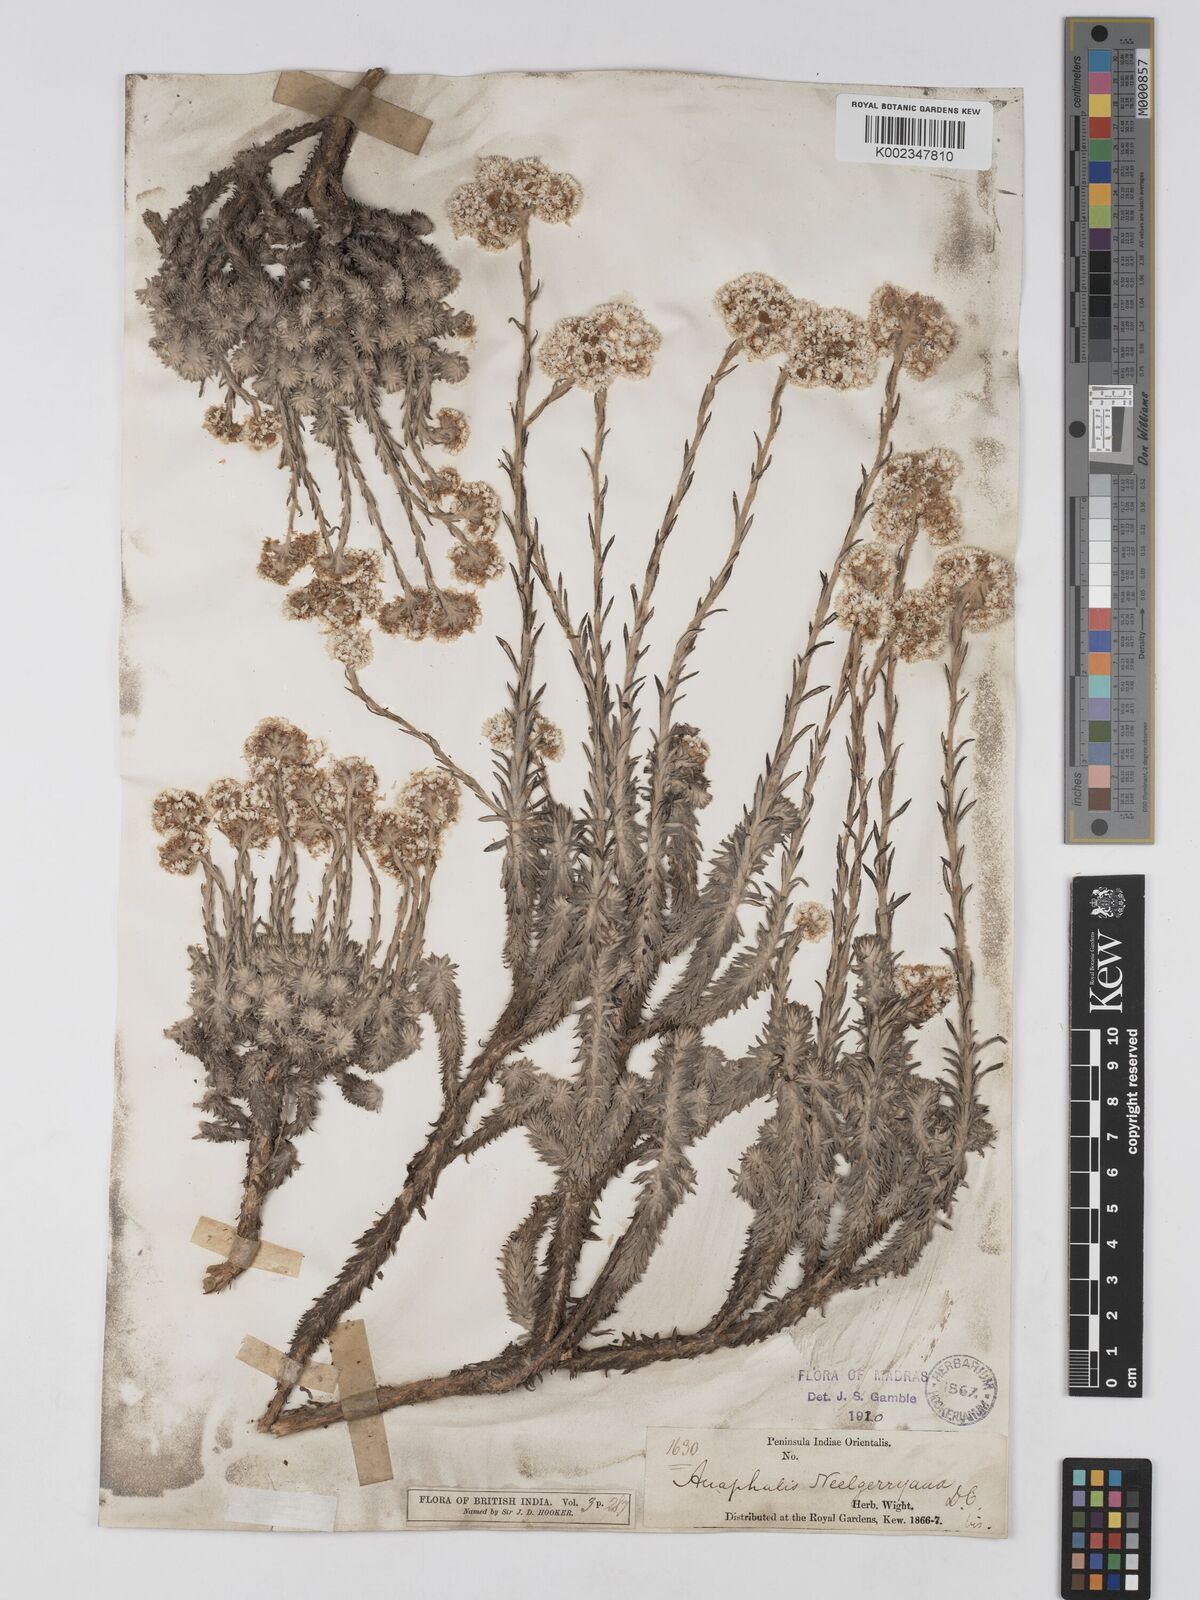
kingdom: Plantae
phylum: Tracheophyta
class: Magnoliopsida
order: Asterales
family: Asteraceae
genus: Anaphalis
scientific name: Anaphalis neelgerryana
